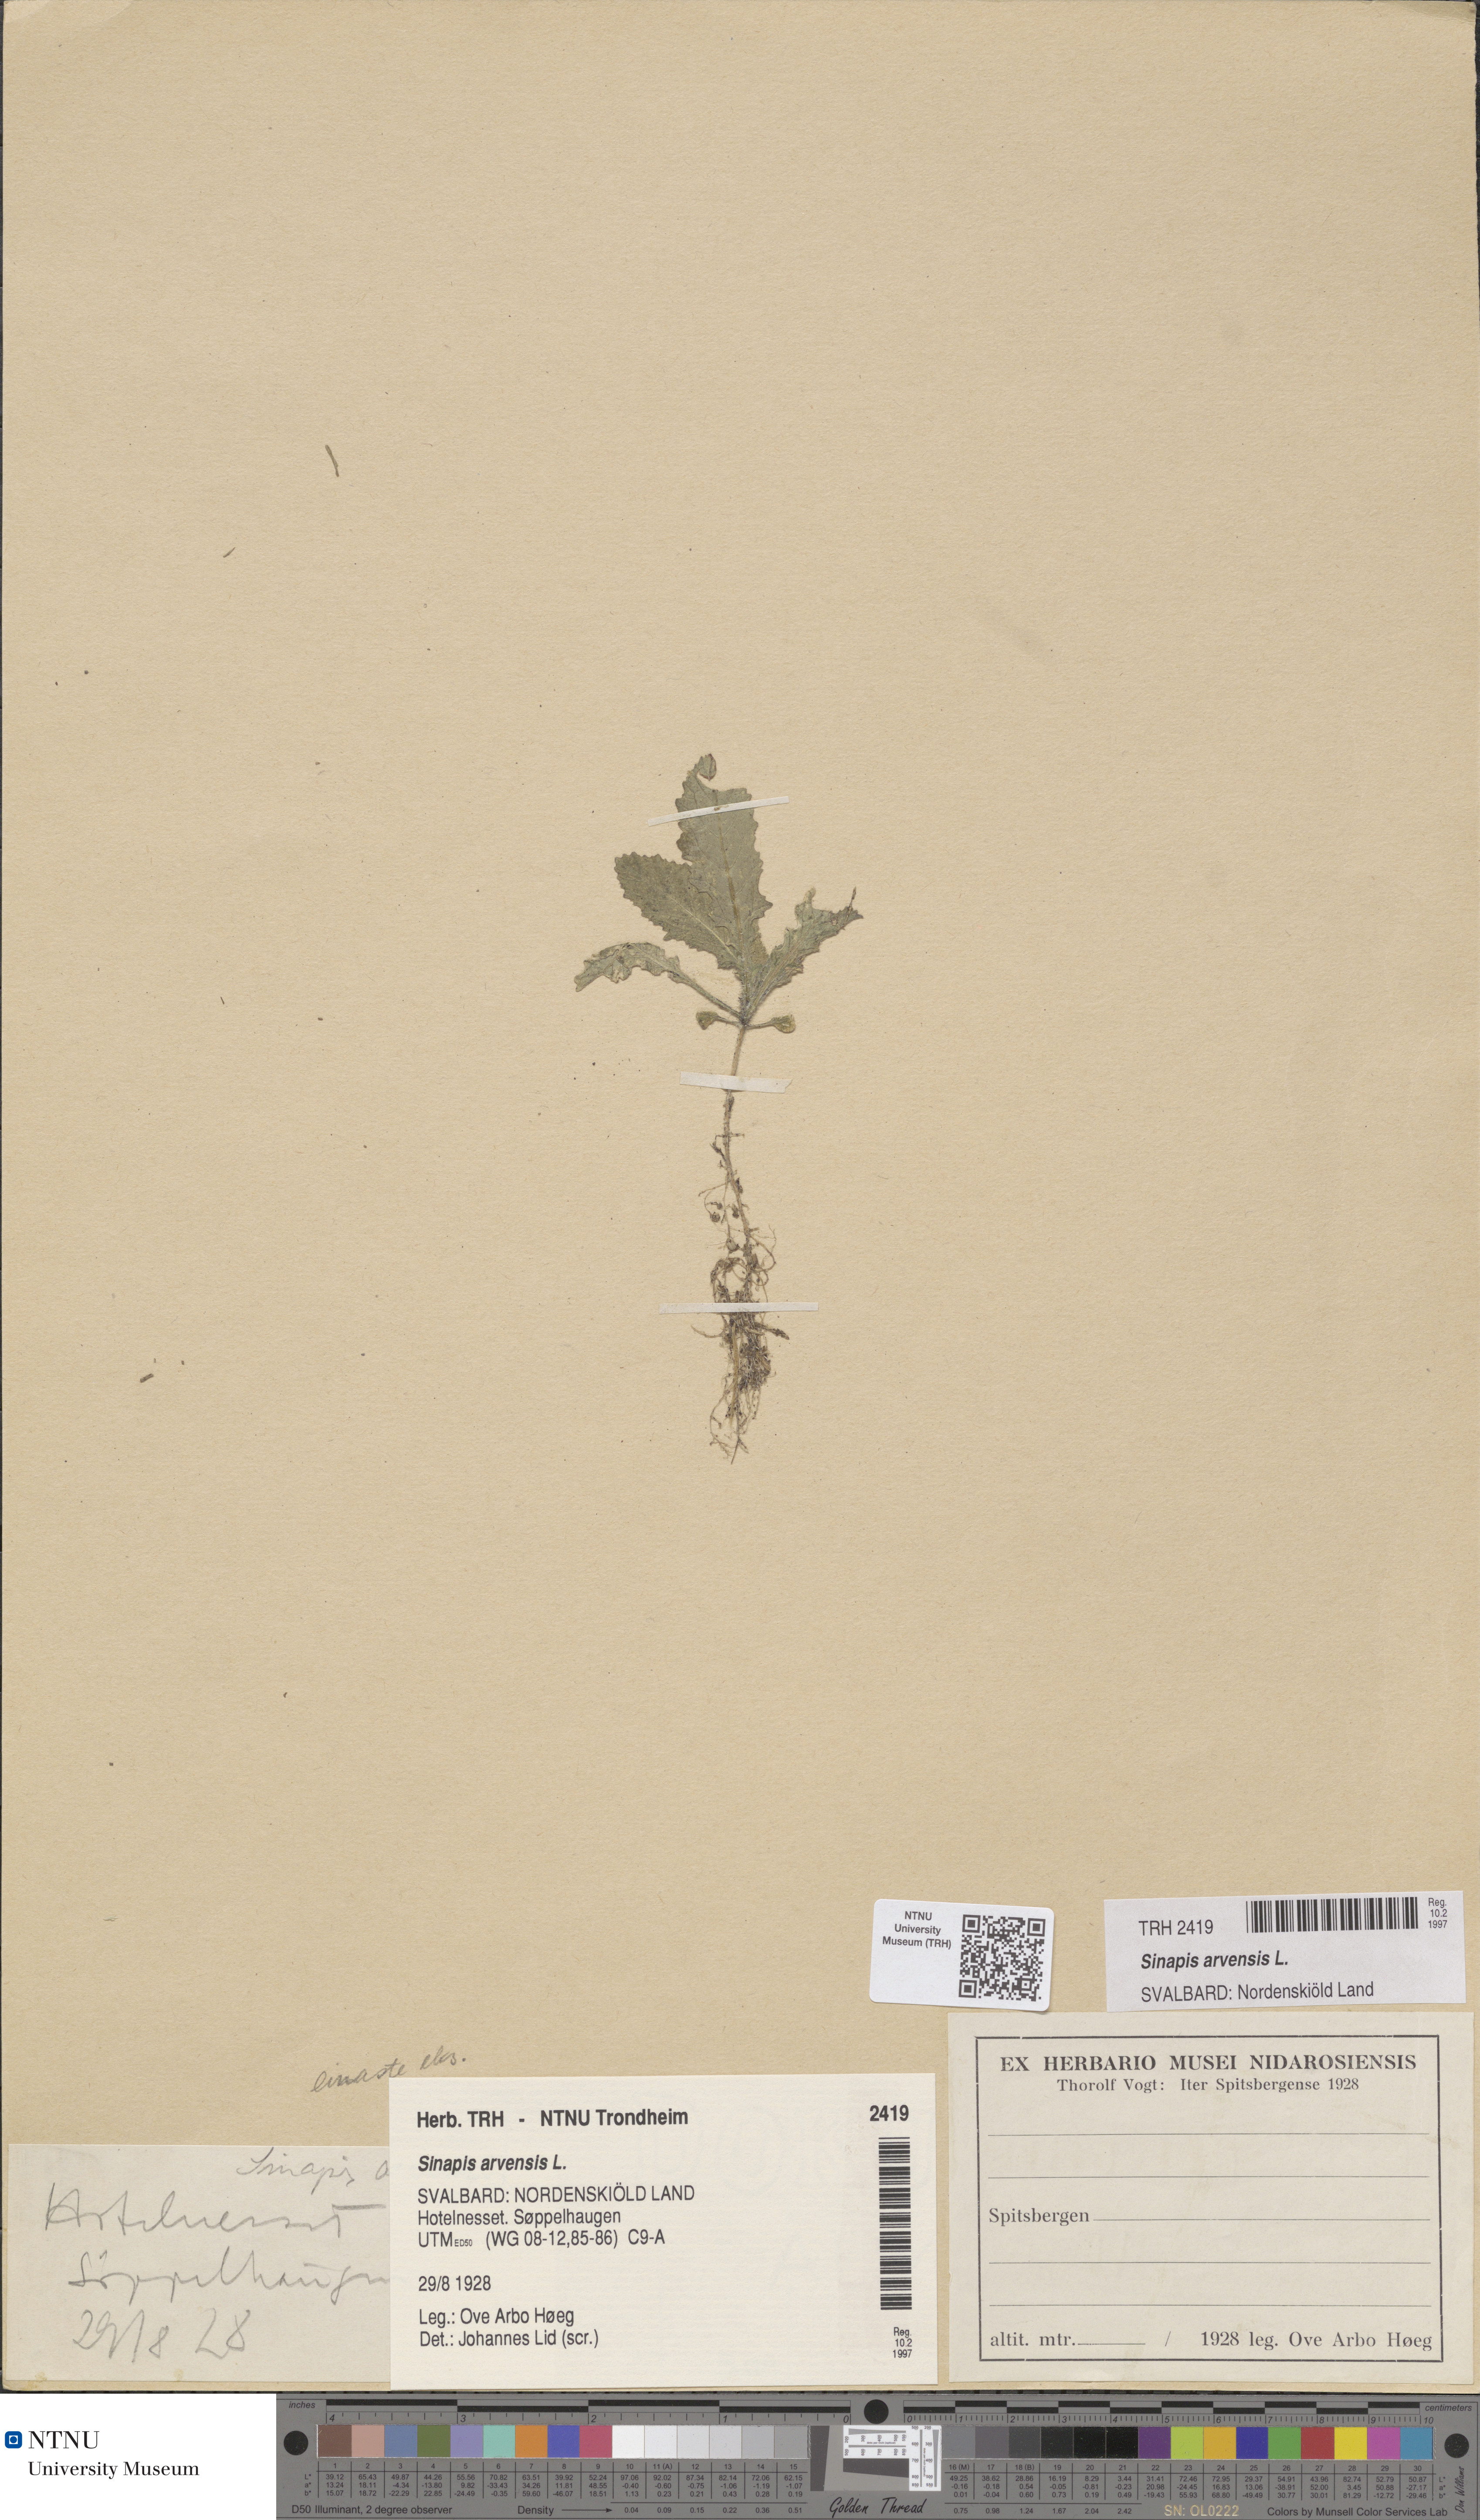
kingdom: Plantae
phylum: Tracheophyta
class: Magnoliopsida
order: Brassicales
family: Brassicaceae
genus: Sinapis
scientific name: Sinapis arvensis
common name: Charlock
